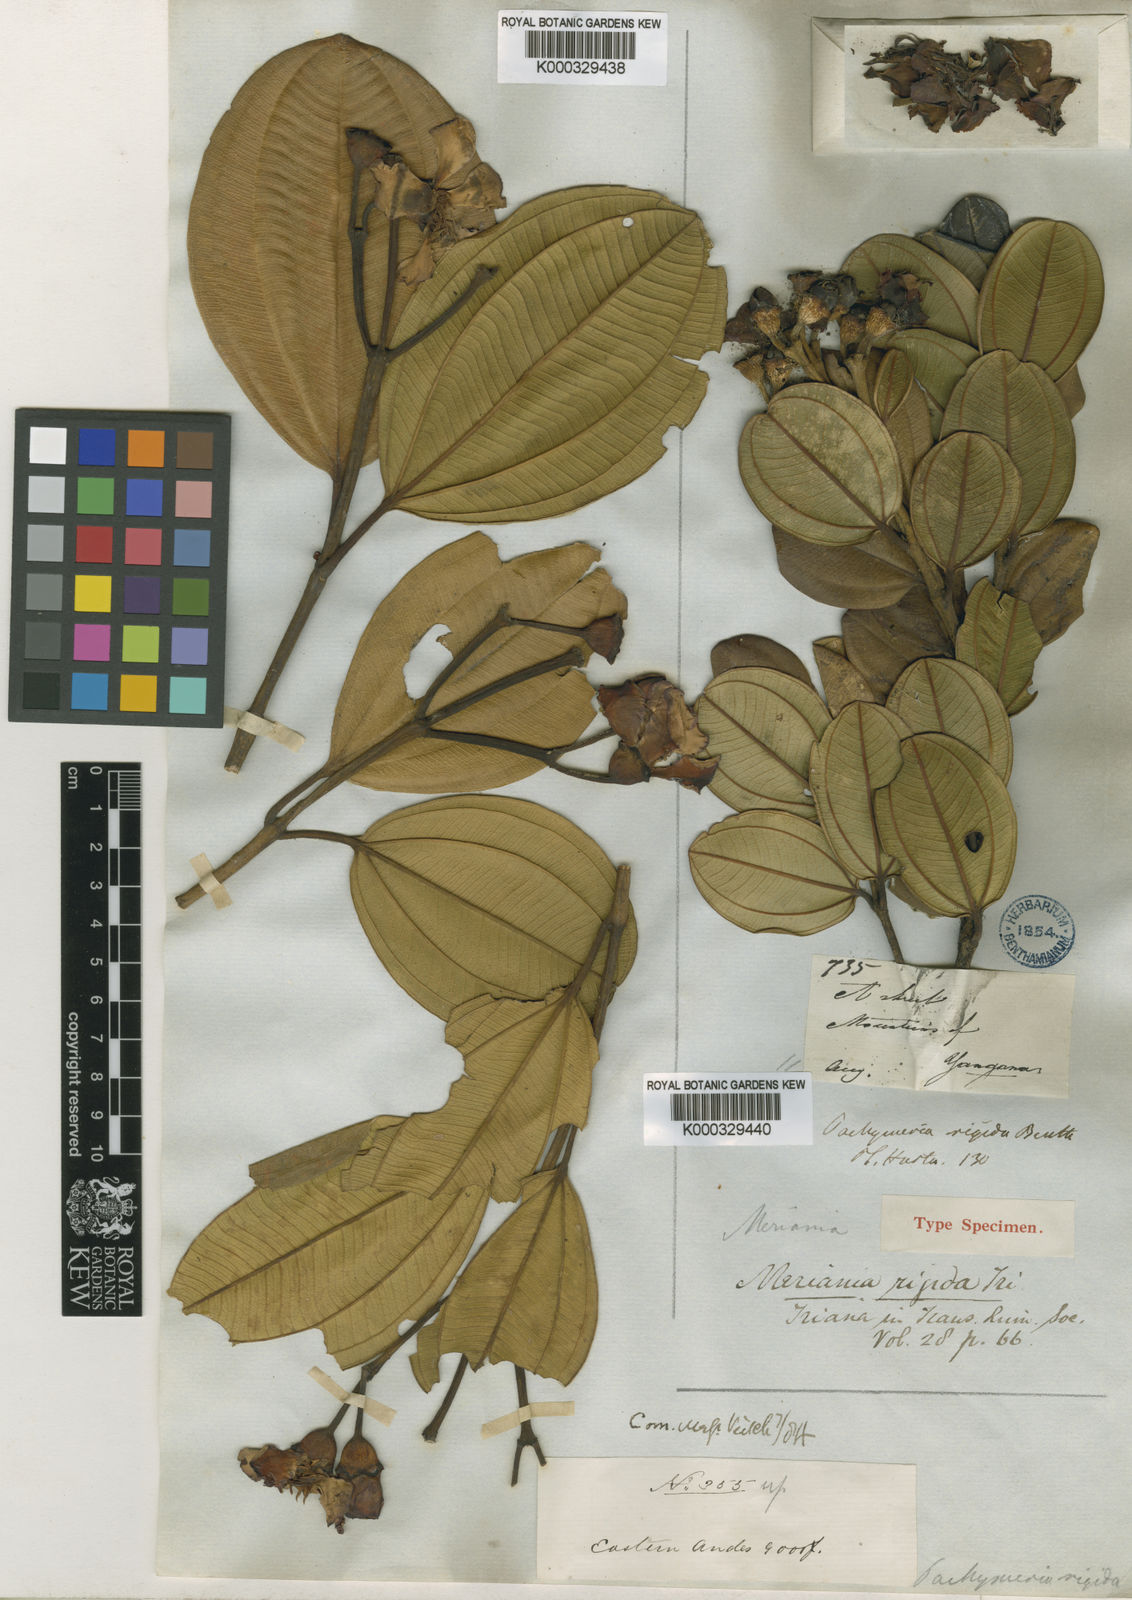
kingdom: Plantae
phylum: Tracheophyta
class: Magnoliopsida
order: Myrtales
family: Melastomataceae
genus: Meriania
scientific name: Meriania rigida
